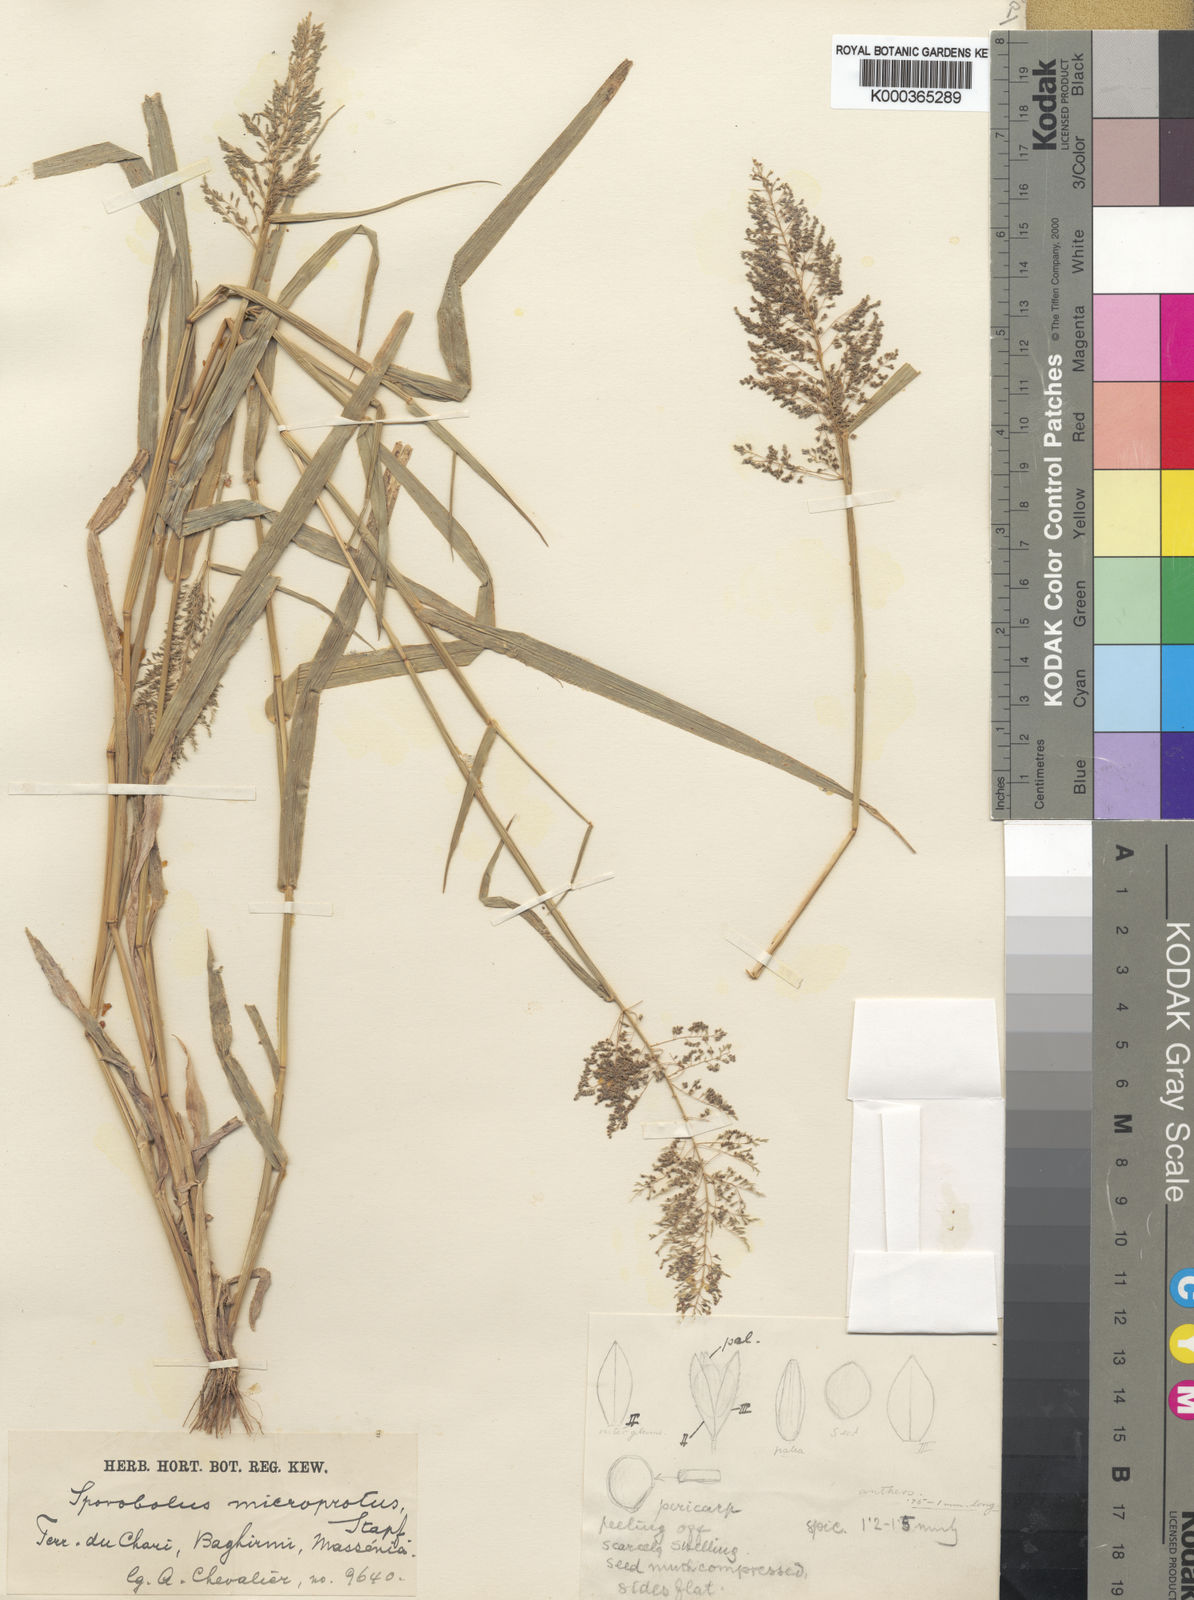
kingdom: Plantae
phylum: Tracheophyta
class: Liliopsida
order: Poales
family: Poaceae
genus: Sporobolus
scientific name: Sporobolus microprotus
